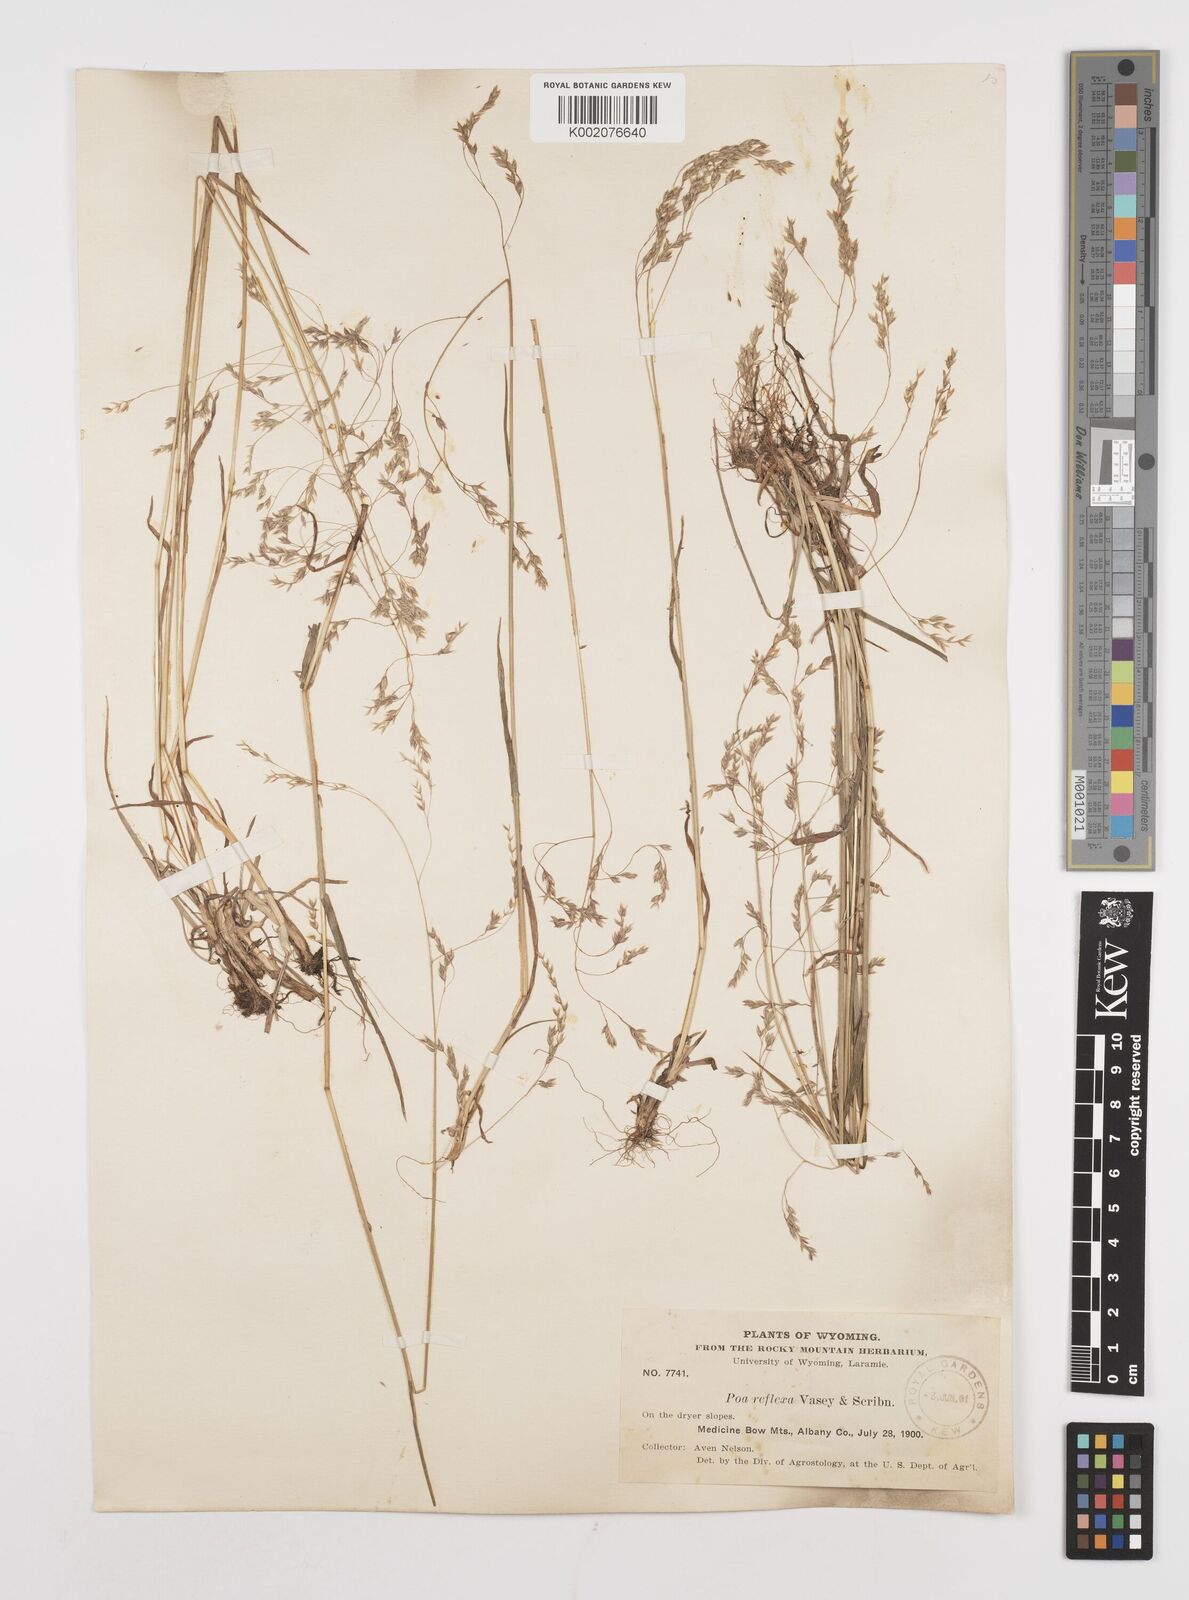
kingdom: Plantae
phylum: Tracheophyta
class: Liliopsida
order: Poales
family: Poaceae
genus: Poa
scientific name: Poa reflexa
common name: Nodding bluegrass
